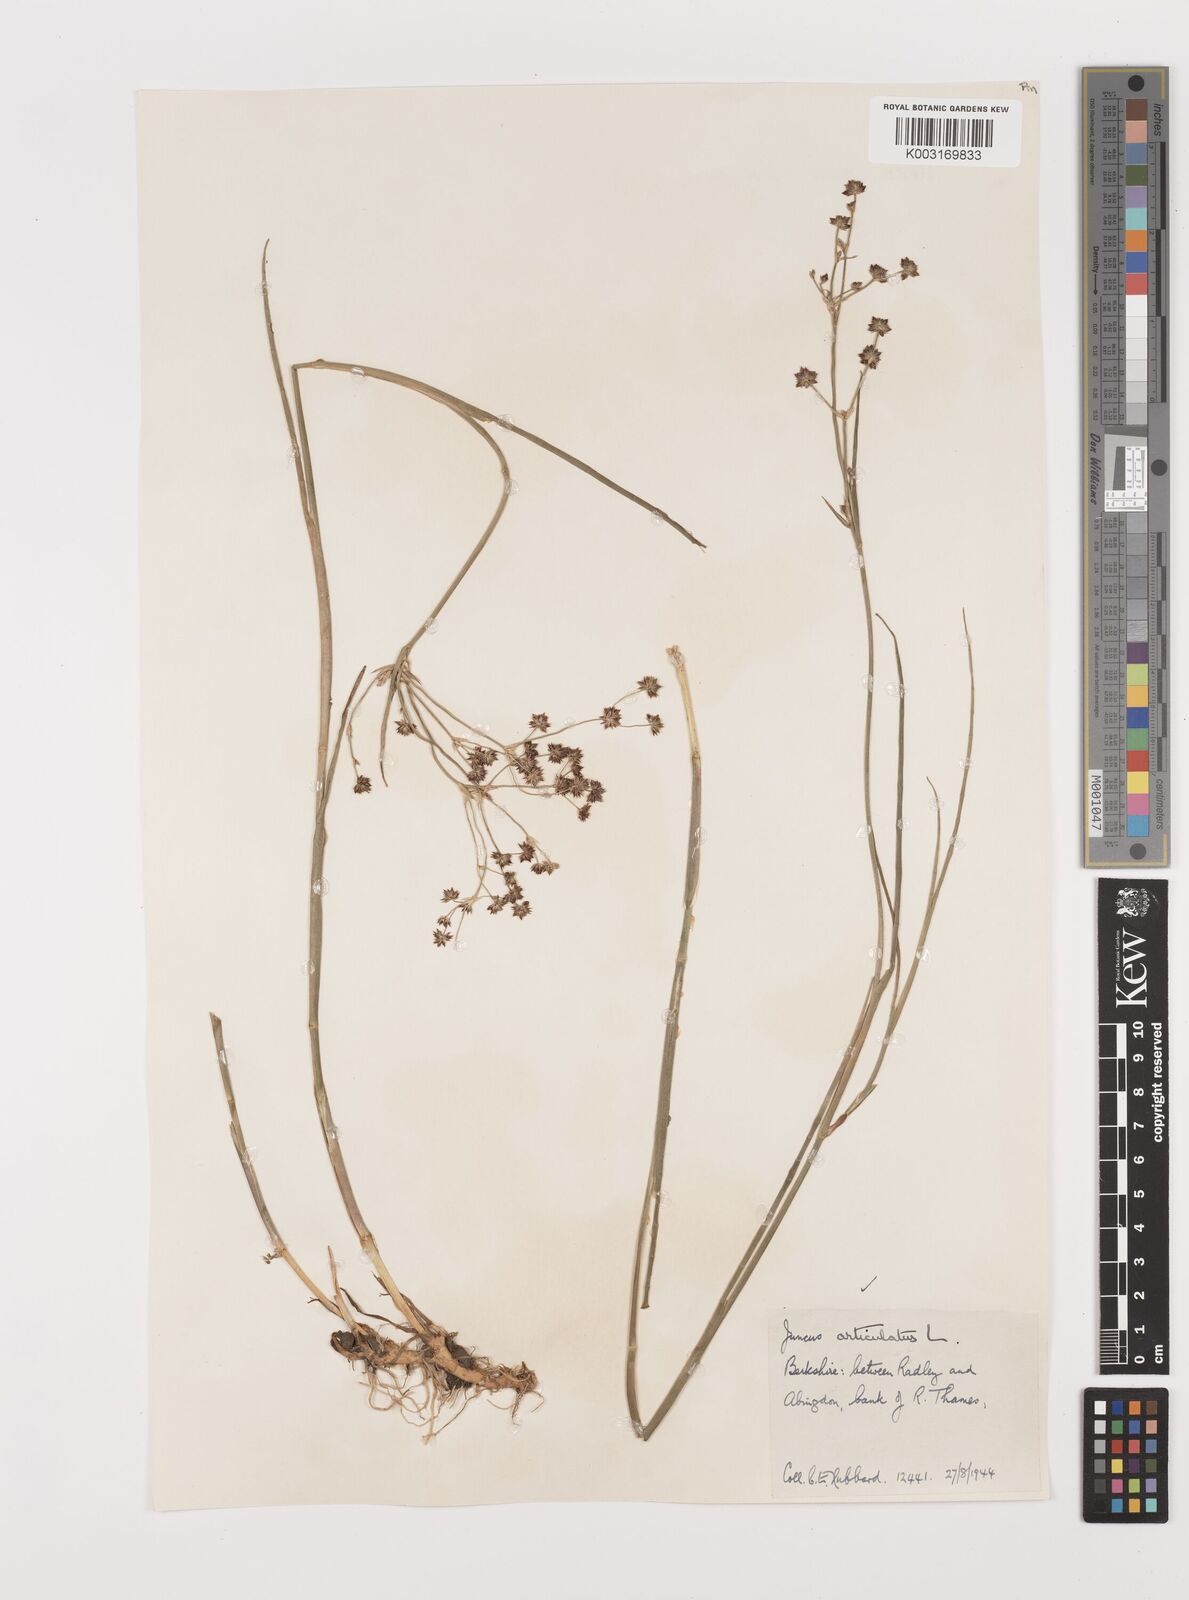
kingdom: Plantae
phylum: Tracheophyta
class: Liliopsida
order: Poales
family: Juncaceae
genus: Juncus
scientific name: Juncus articulatus
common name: Jointed rush
